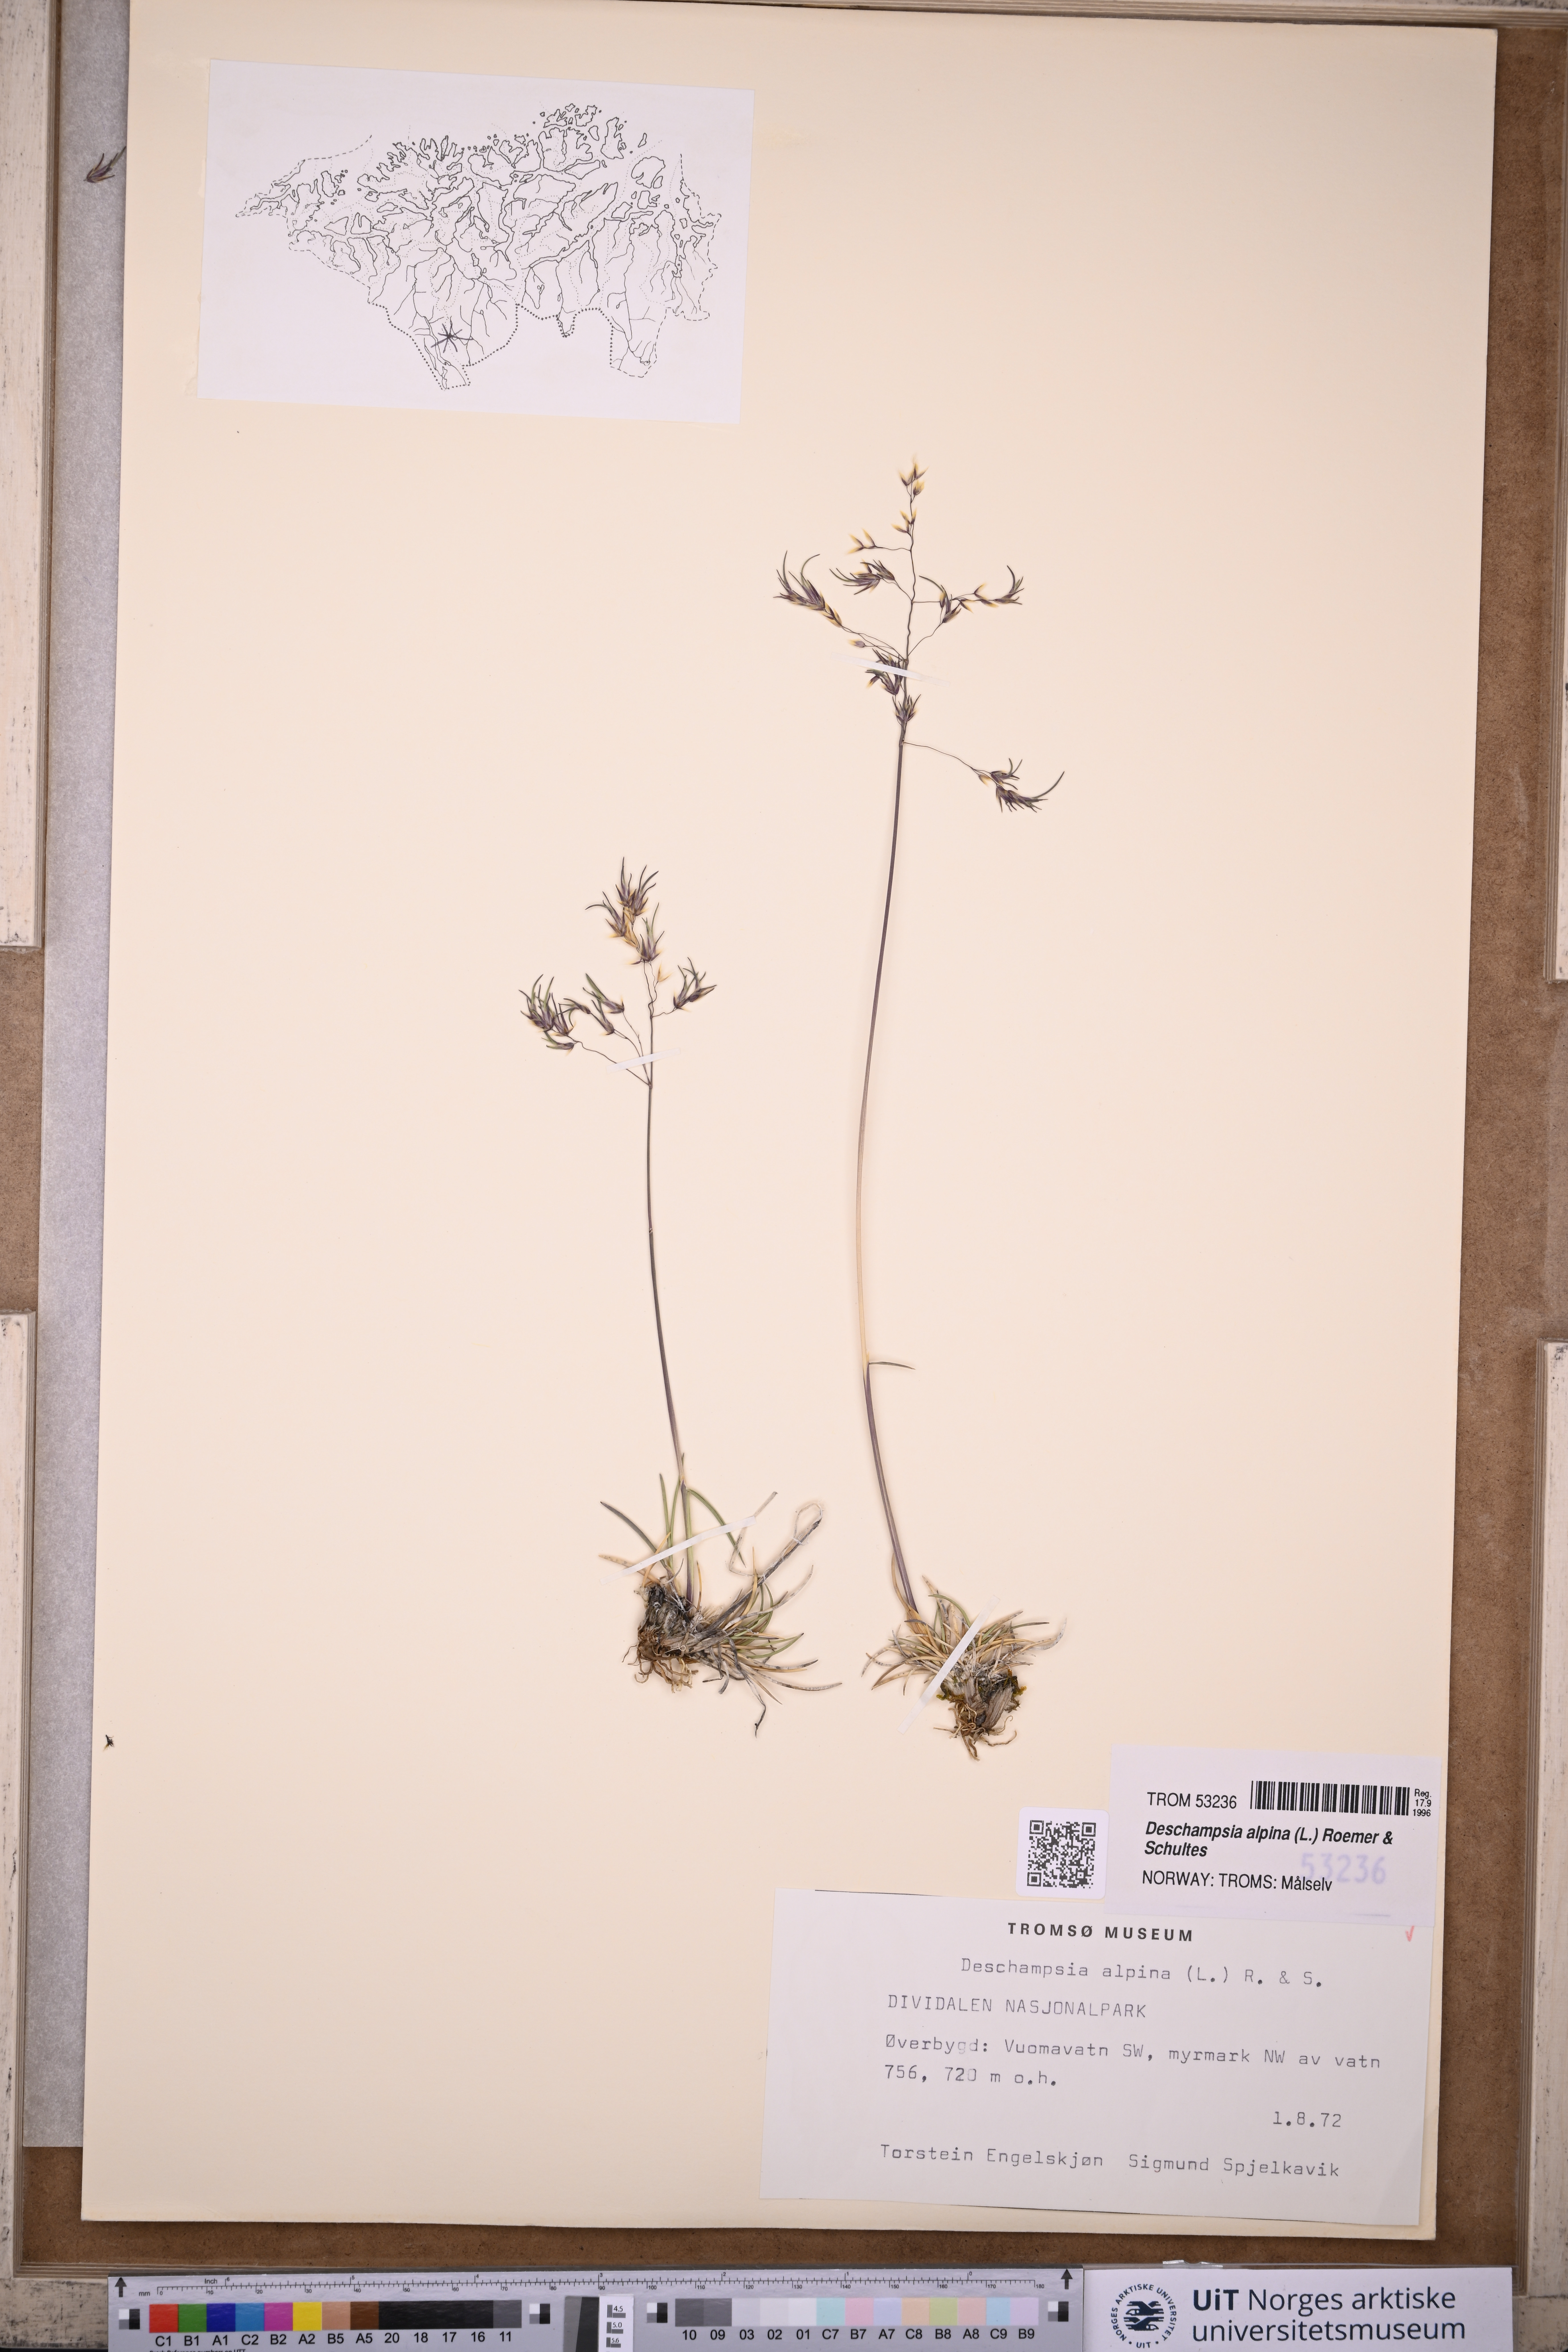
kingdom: Plantae
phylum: Tracheophyta
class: Liliopsida
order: Poales
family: Poaceae
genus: Deschampsia
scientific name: Deschampsia cespitosa
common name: Tufted hair-grass
